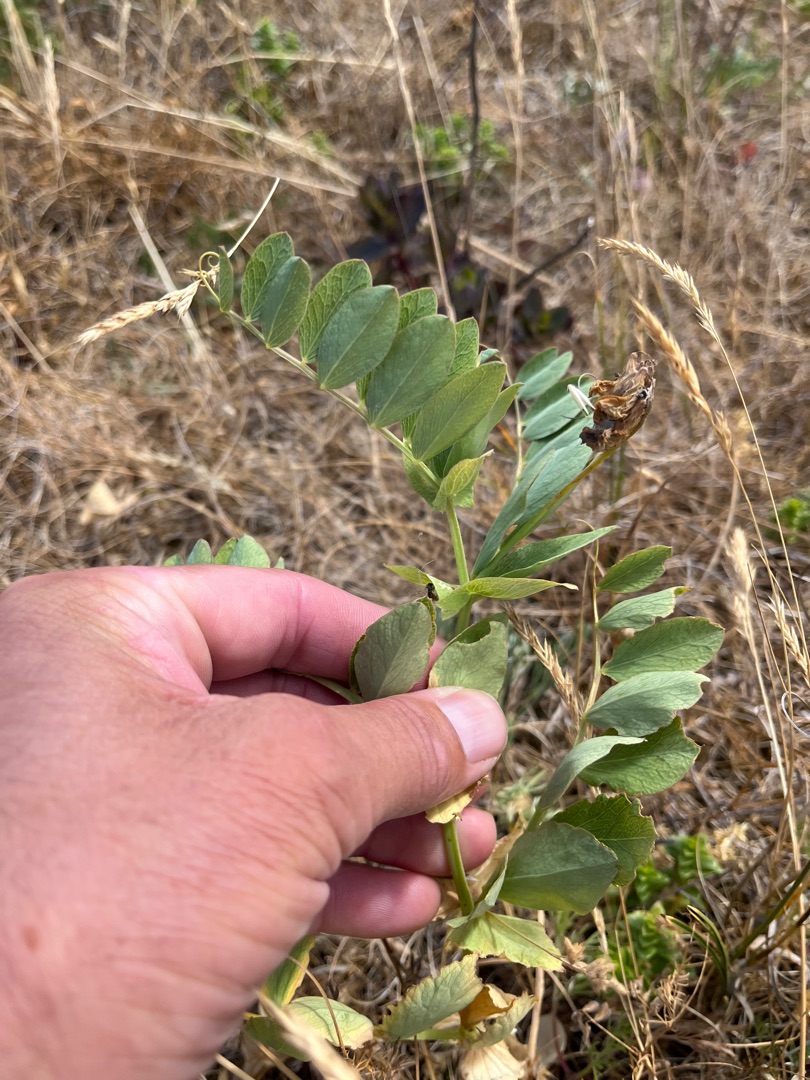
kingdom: Plantae
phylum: Tracheophyta
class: Magnoliopsida
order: Fabales
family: Fabaceae
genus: Lathyrus
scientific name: Lathyrus japonicus
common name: Strand-fladbælg
